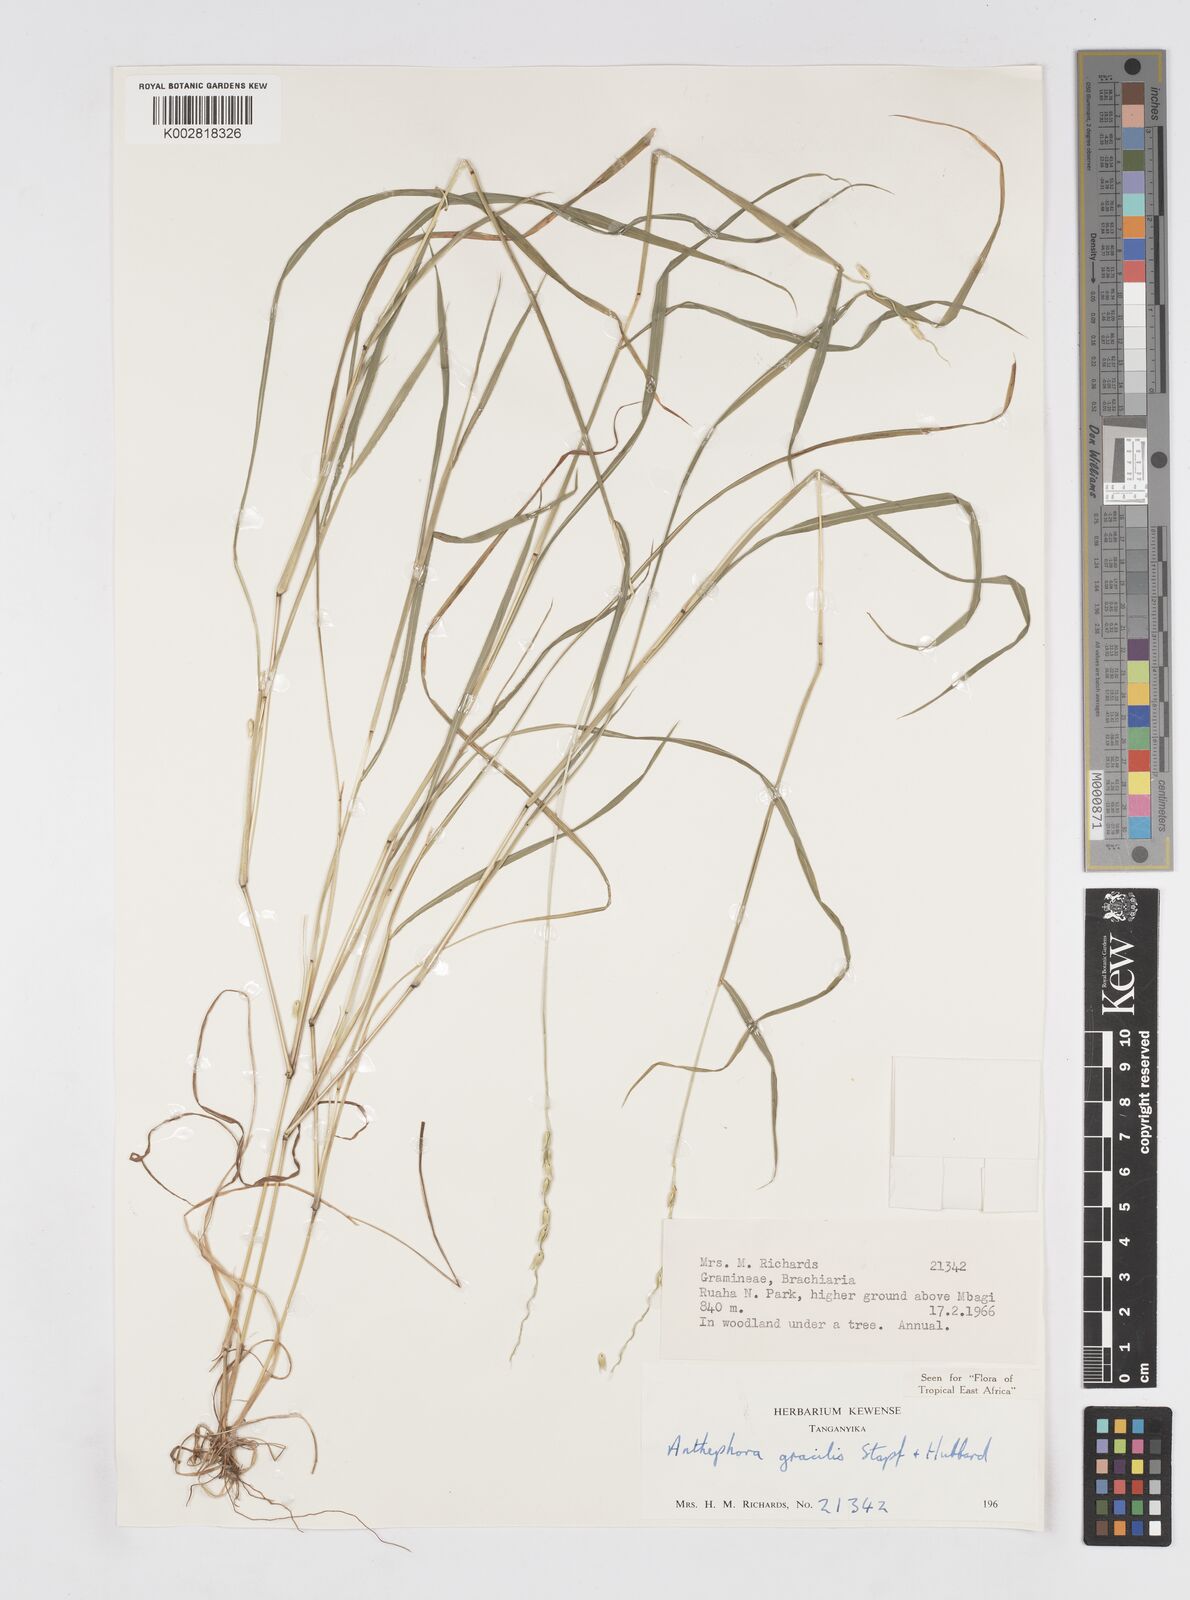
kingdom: Plantae
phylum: Tracheophyta
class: Liliopsida
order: Poales
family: Poaceae
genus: Anthephora
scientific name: Anthephora truncata
